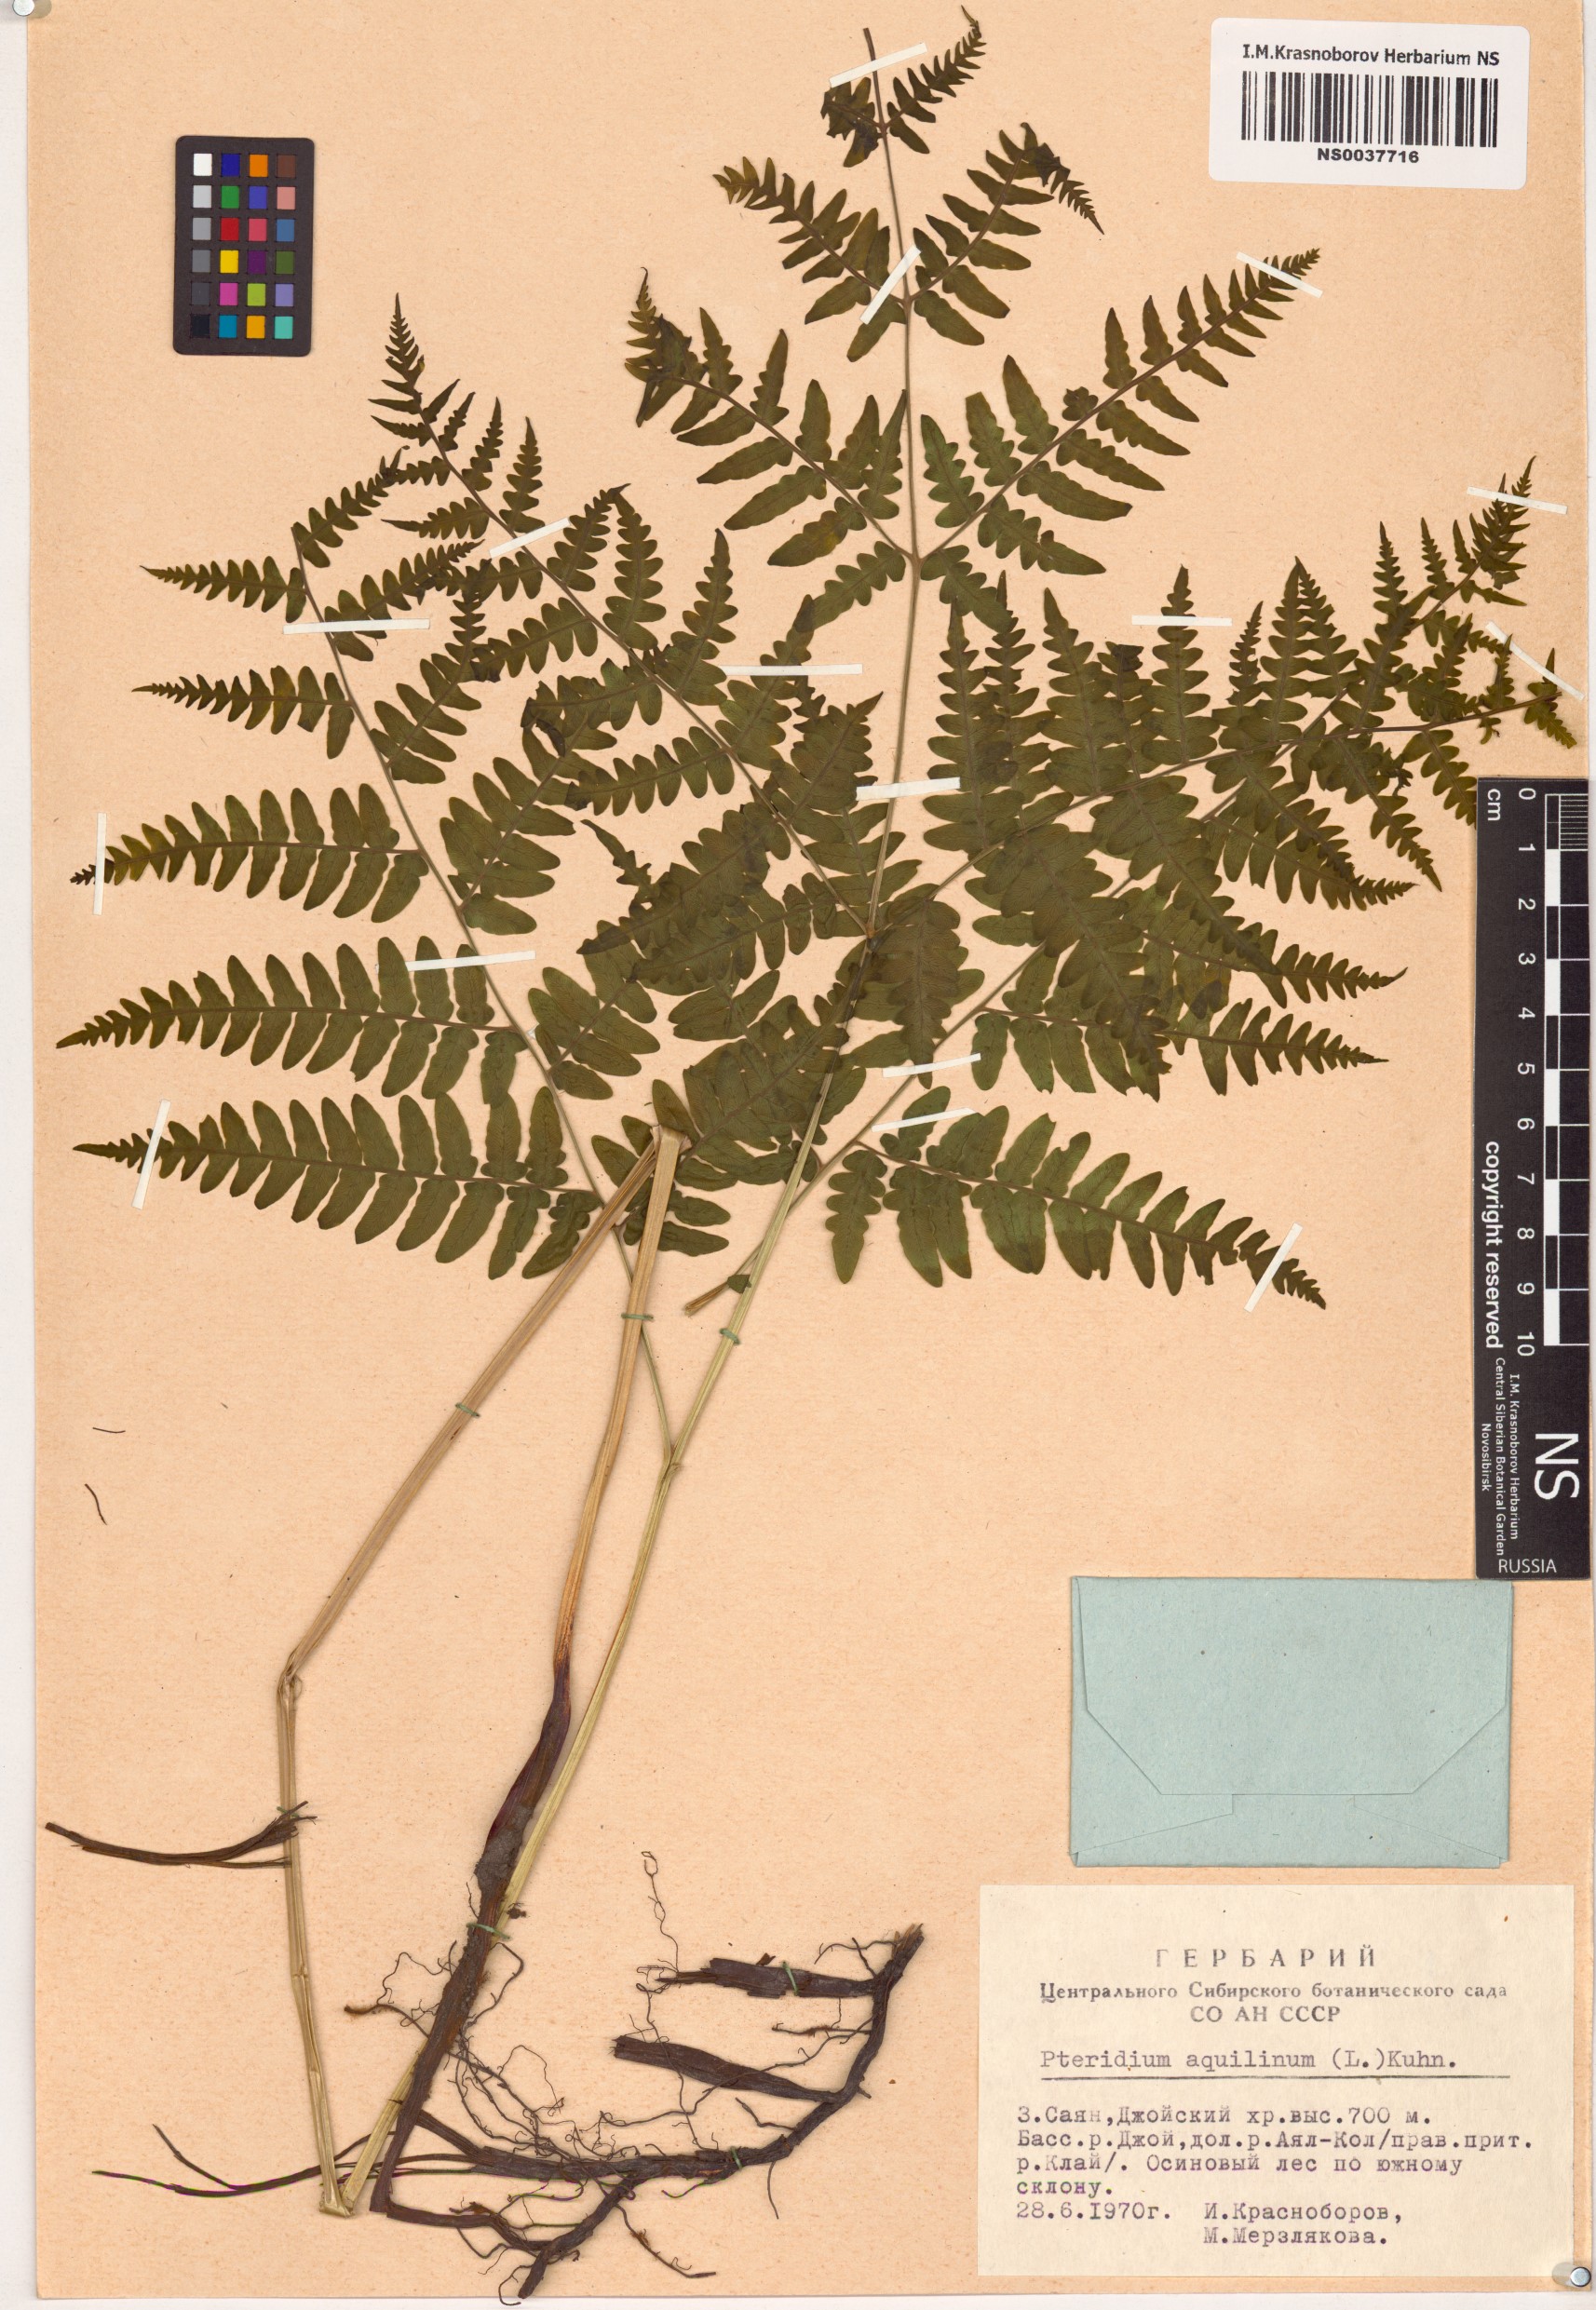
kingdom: Plantae
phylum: Tracheophyta
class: Polypodiopsida
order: Polypodiales
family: Dennstaedtiaceae
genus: Pteridium
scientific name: Pteridium aquilinum
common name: Bracken
